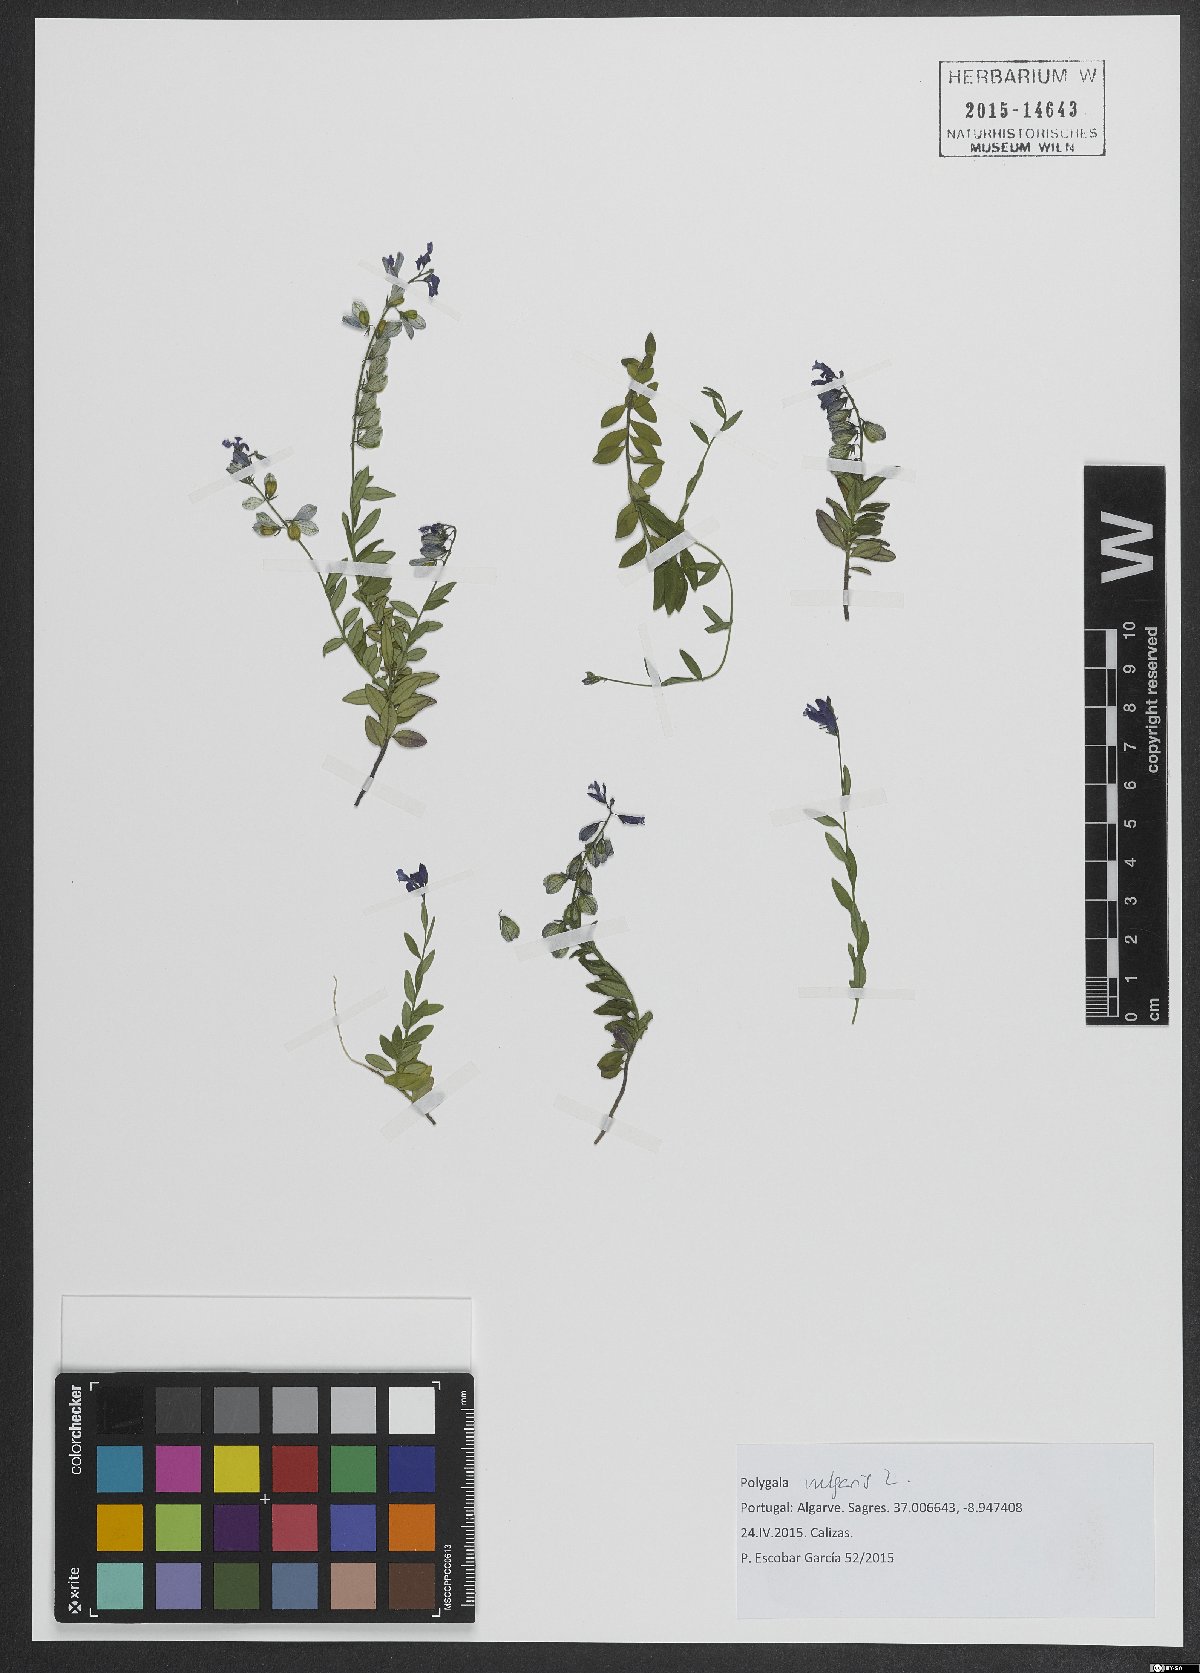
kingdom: Plantae
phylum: Tracheophyta
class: Magnoliopsida
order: Fabales
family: Polygalaceae
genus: Polygala
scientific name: Polygala vulgaris
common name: Common milkwort
